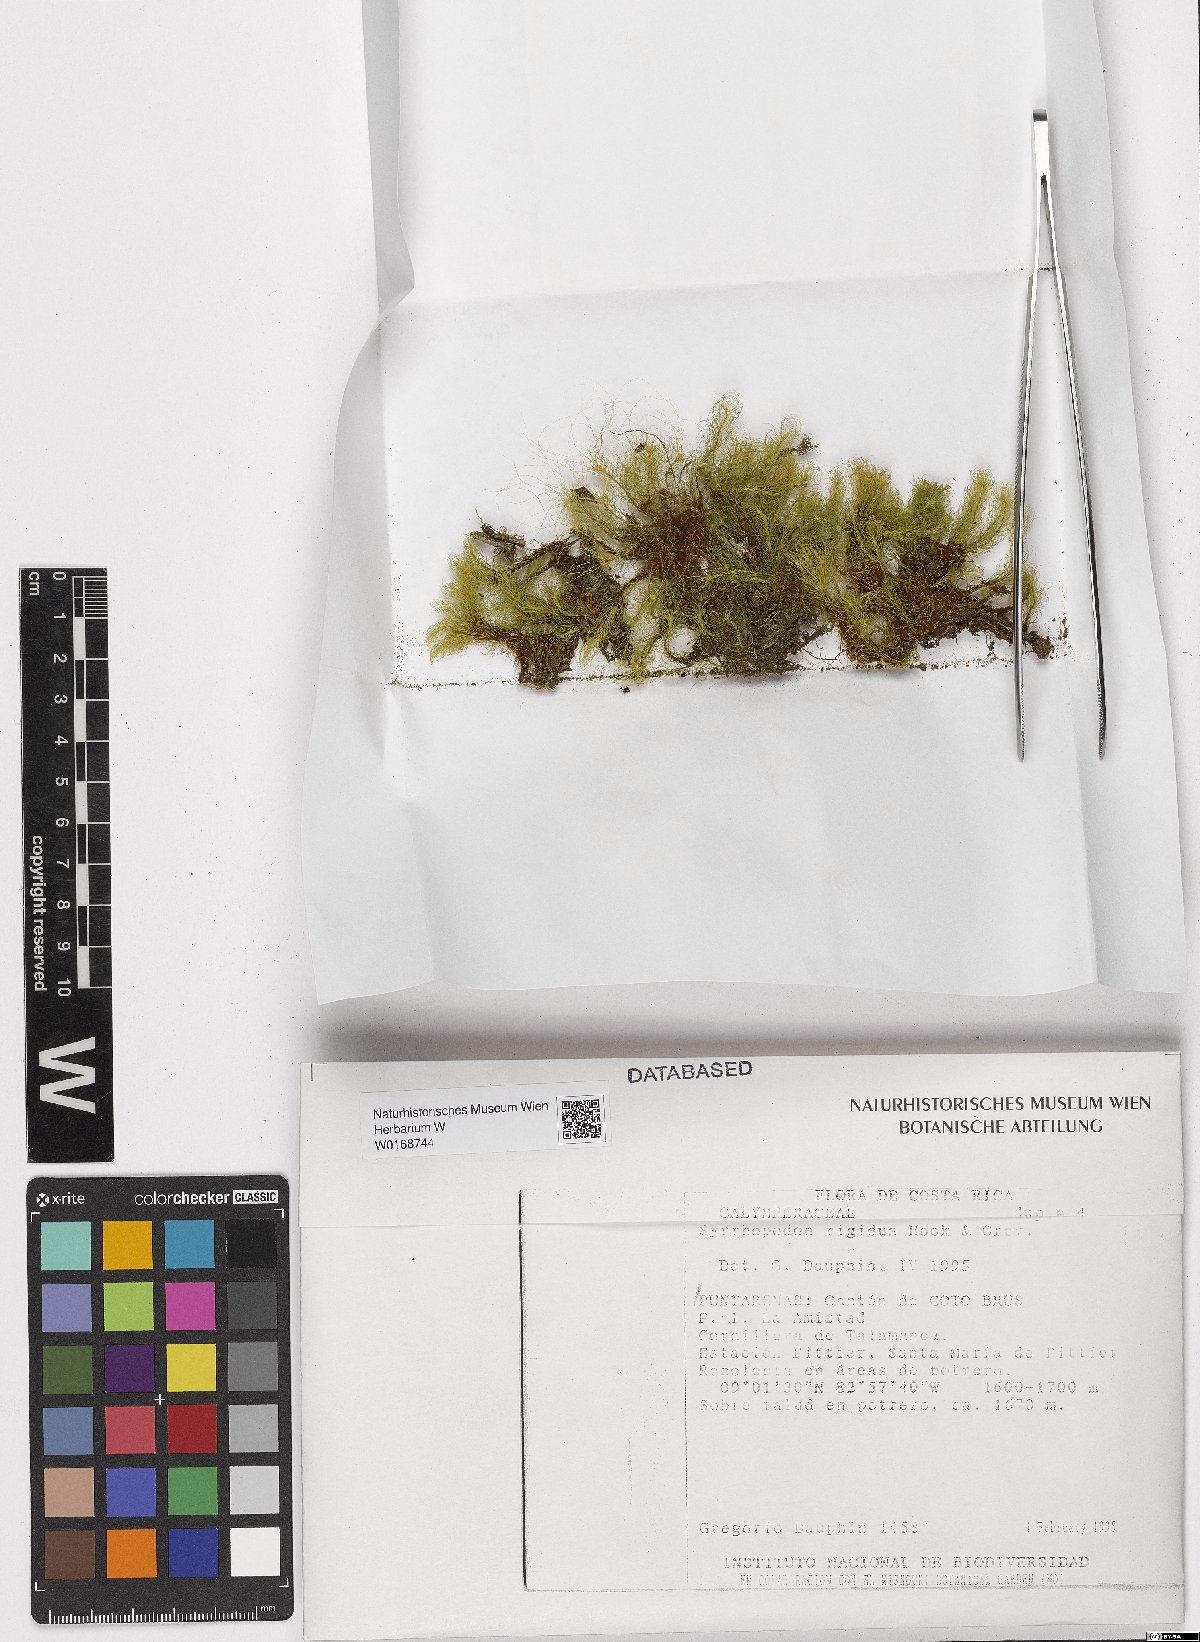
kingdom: Plantae
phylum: Bryophyta
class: Bryopsida
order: Dicranales
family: Calymperaceae
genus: Syrrhopodon
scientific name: Syrrhopodon rigidus
